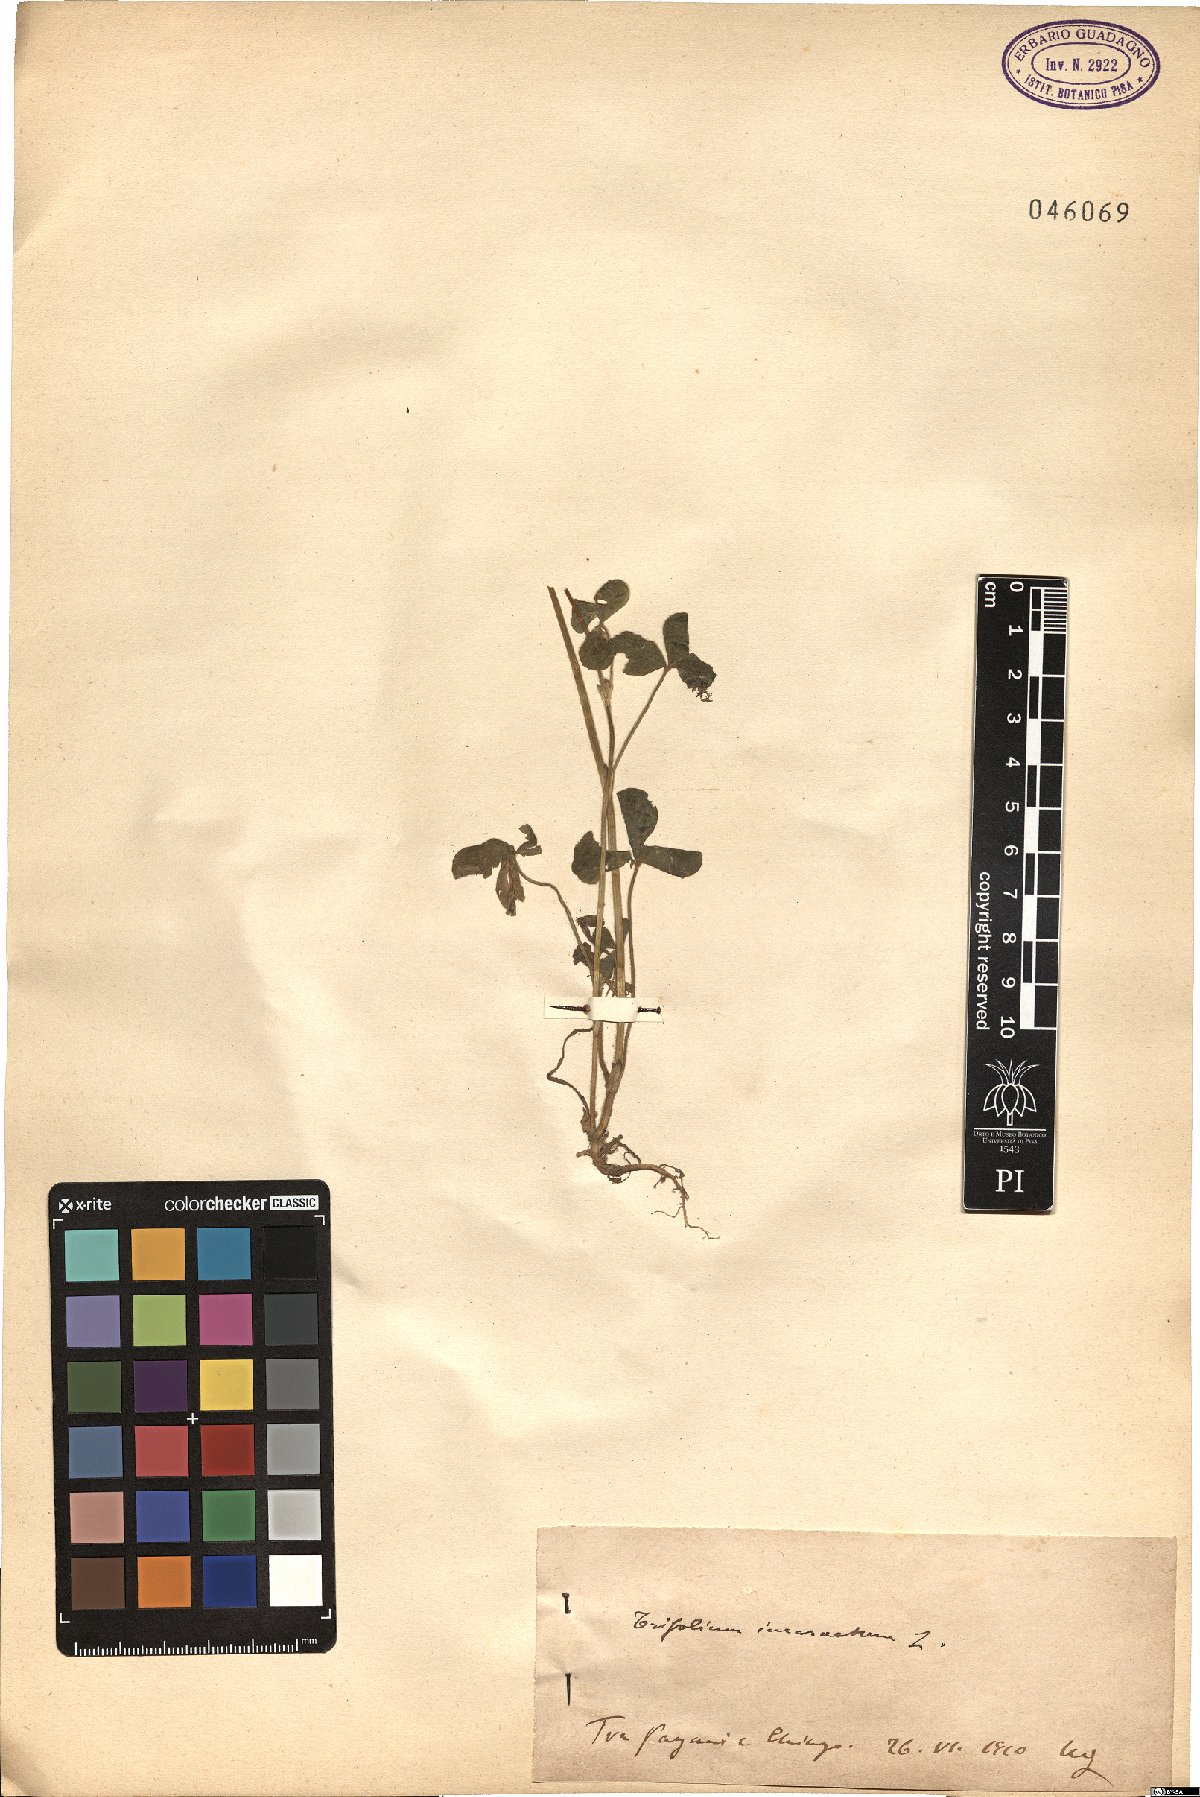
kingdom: Plantae
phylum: Tracheophyta
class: Magnoliopsida
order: Fabales
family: Fabaceae
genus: Trifolium
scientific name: Trifolium incarnatum
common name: Crimson clover
